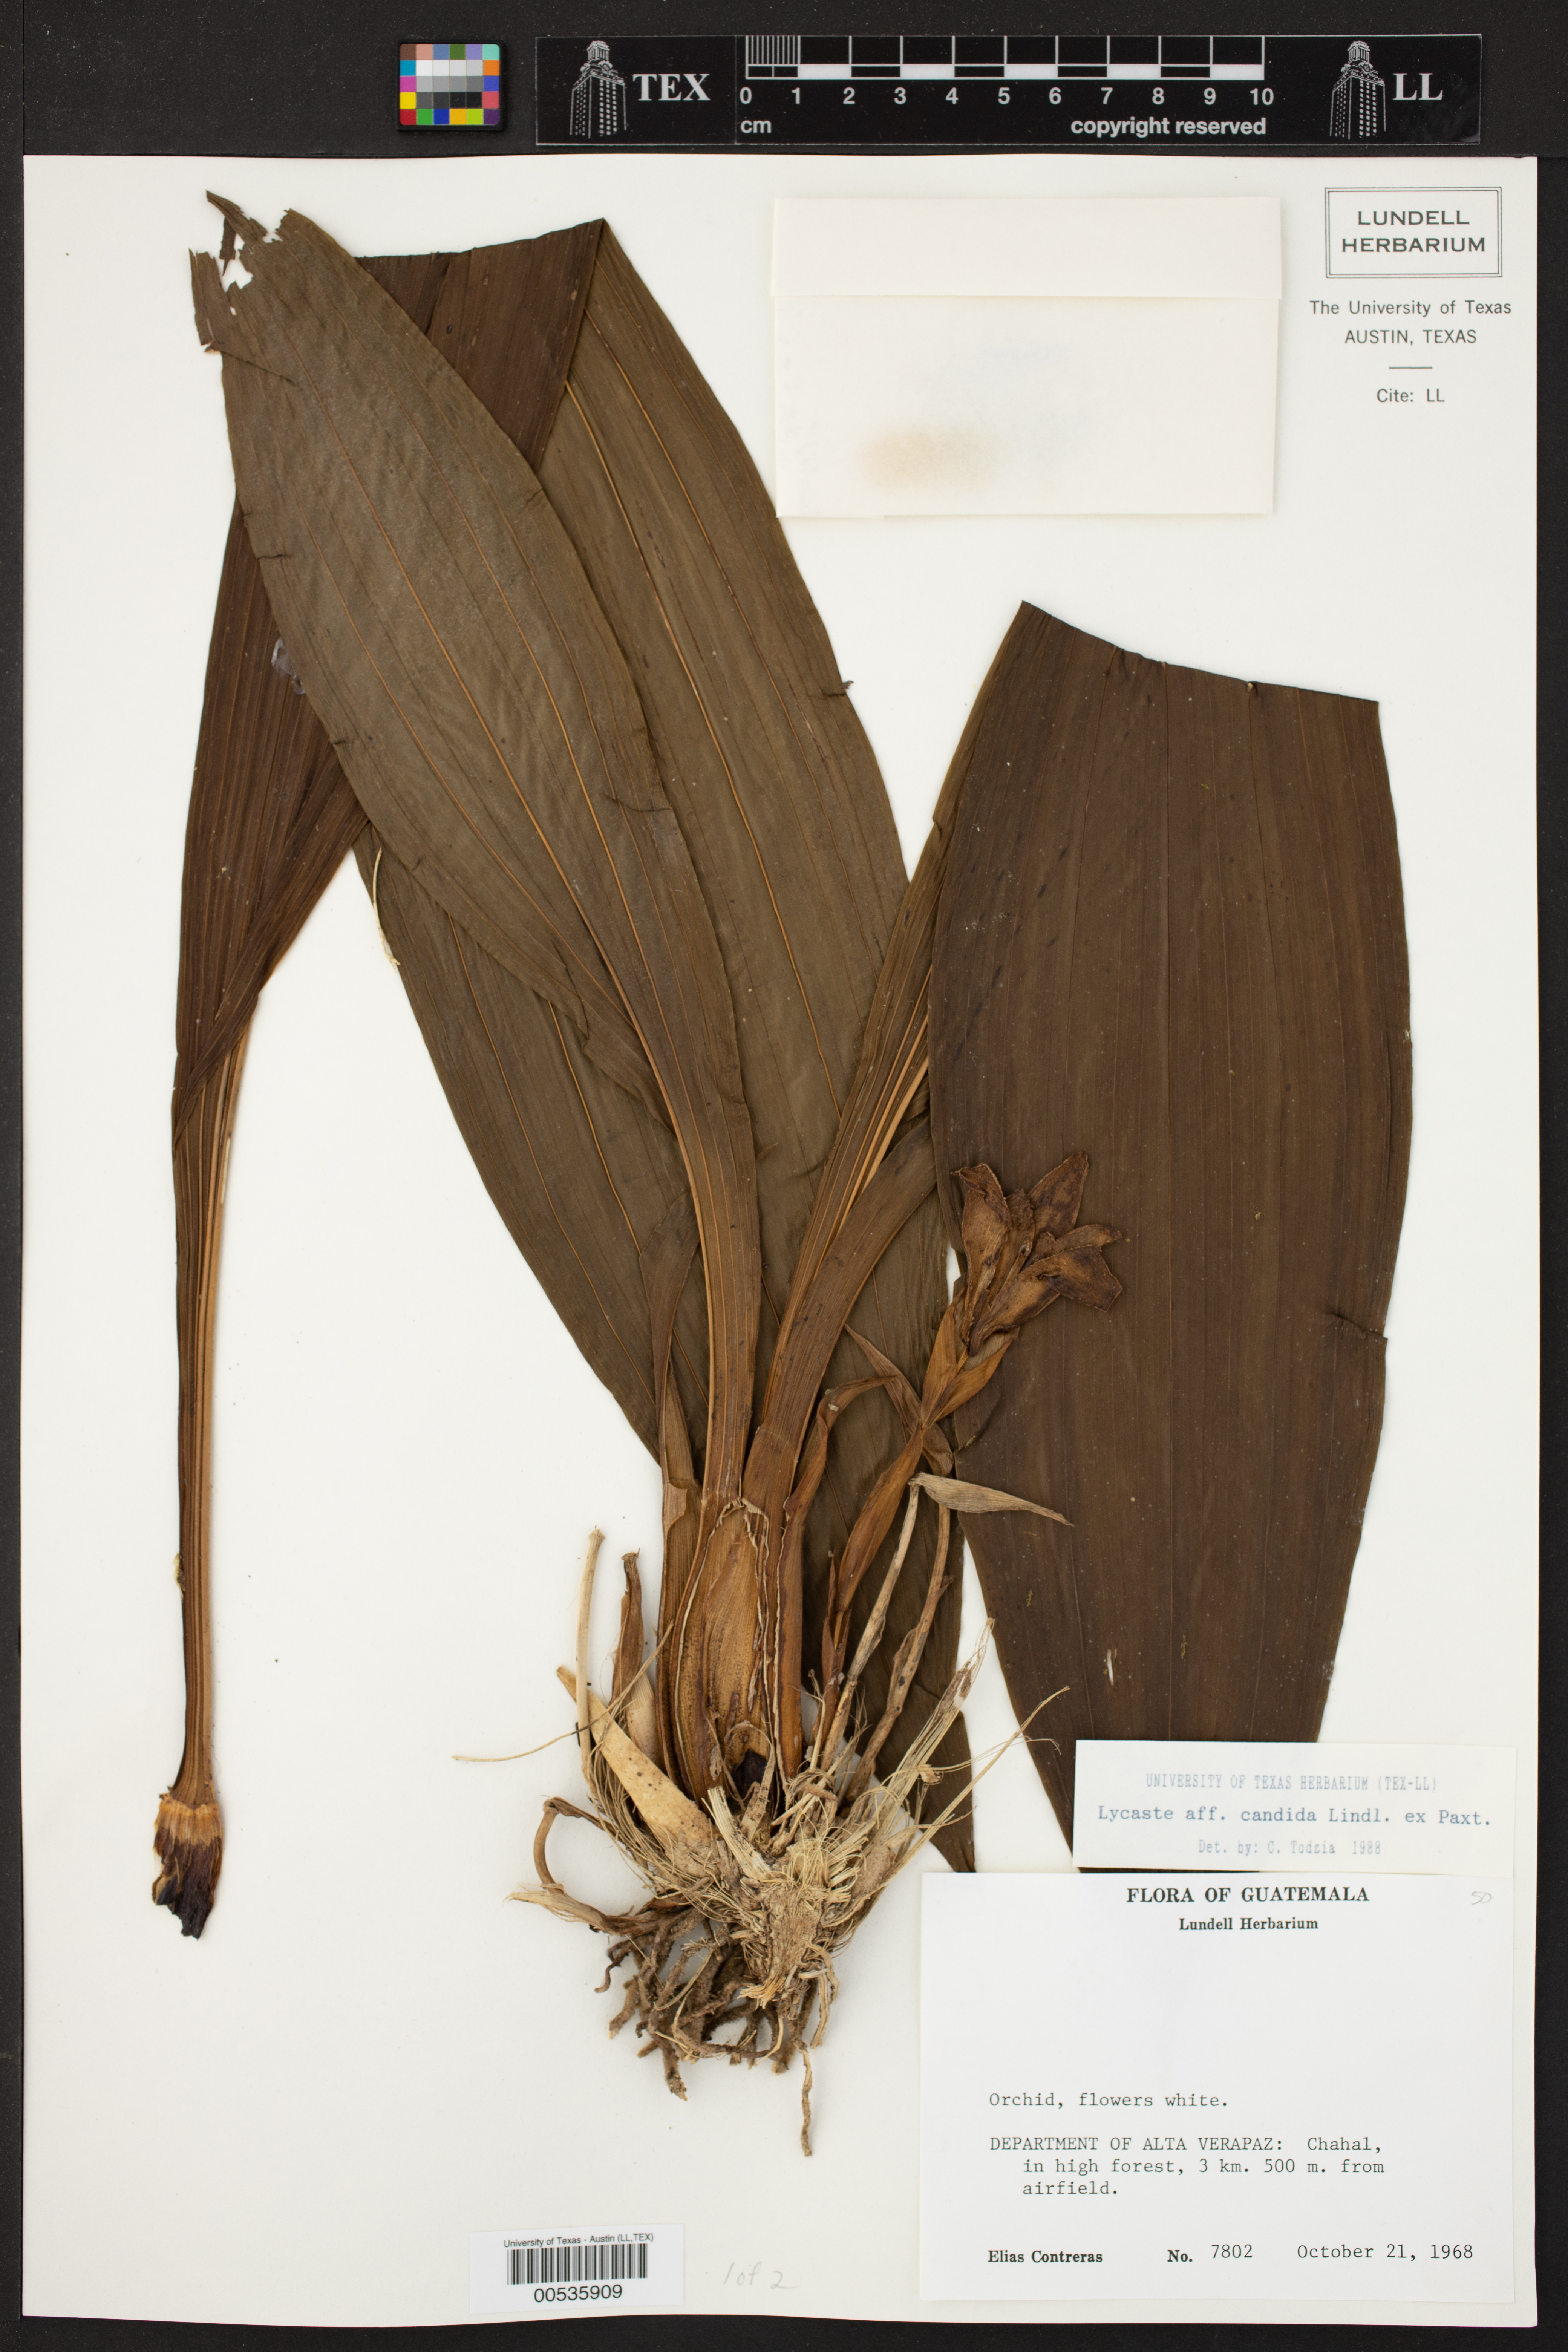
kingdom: Plantae
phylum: Tracheophyta
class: Liliopsida
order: Asparagales
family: Orchidaceae
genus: Lycaste
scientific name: Lycaste candida
